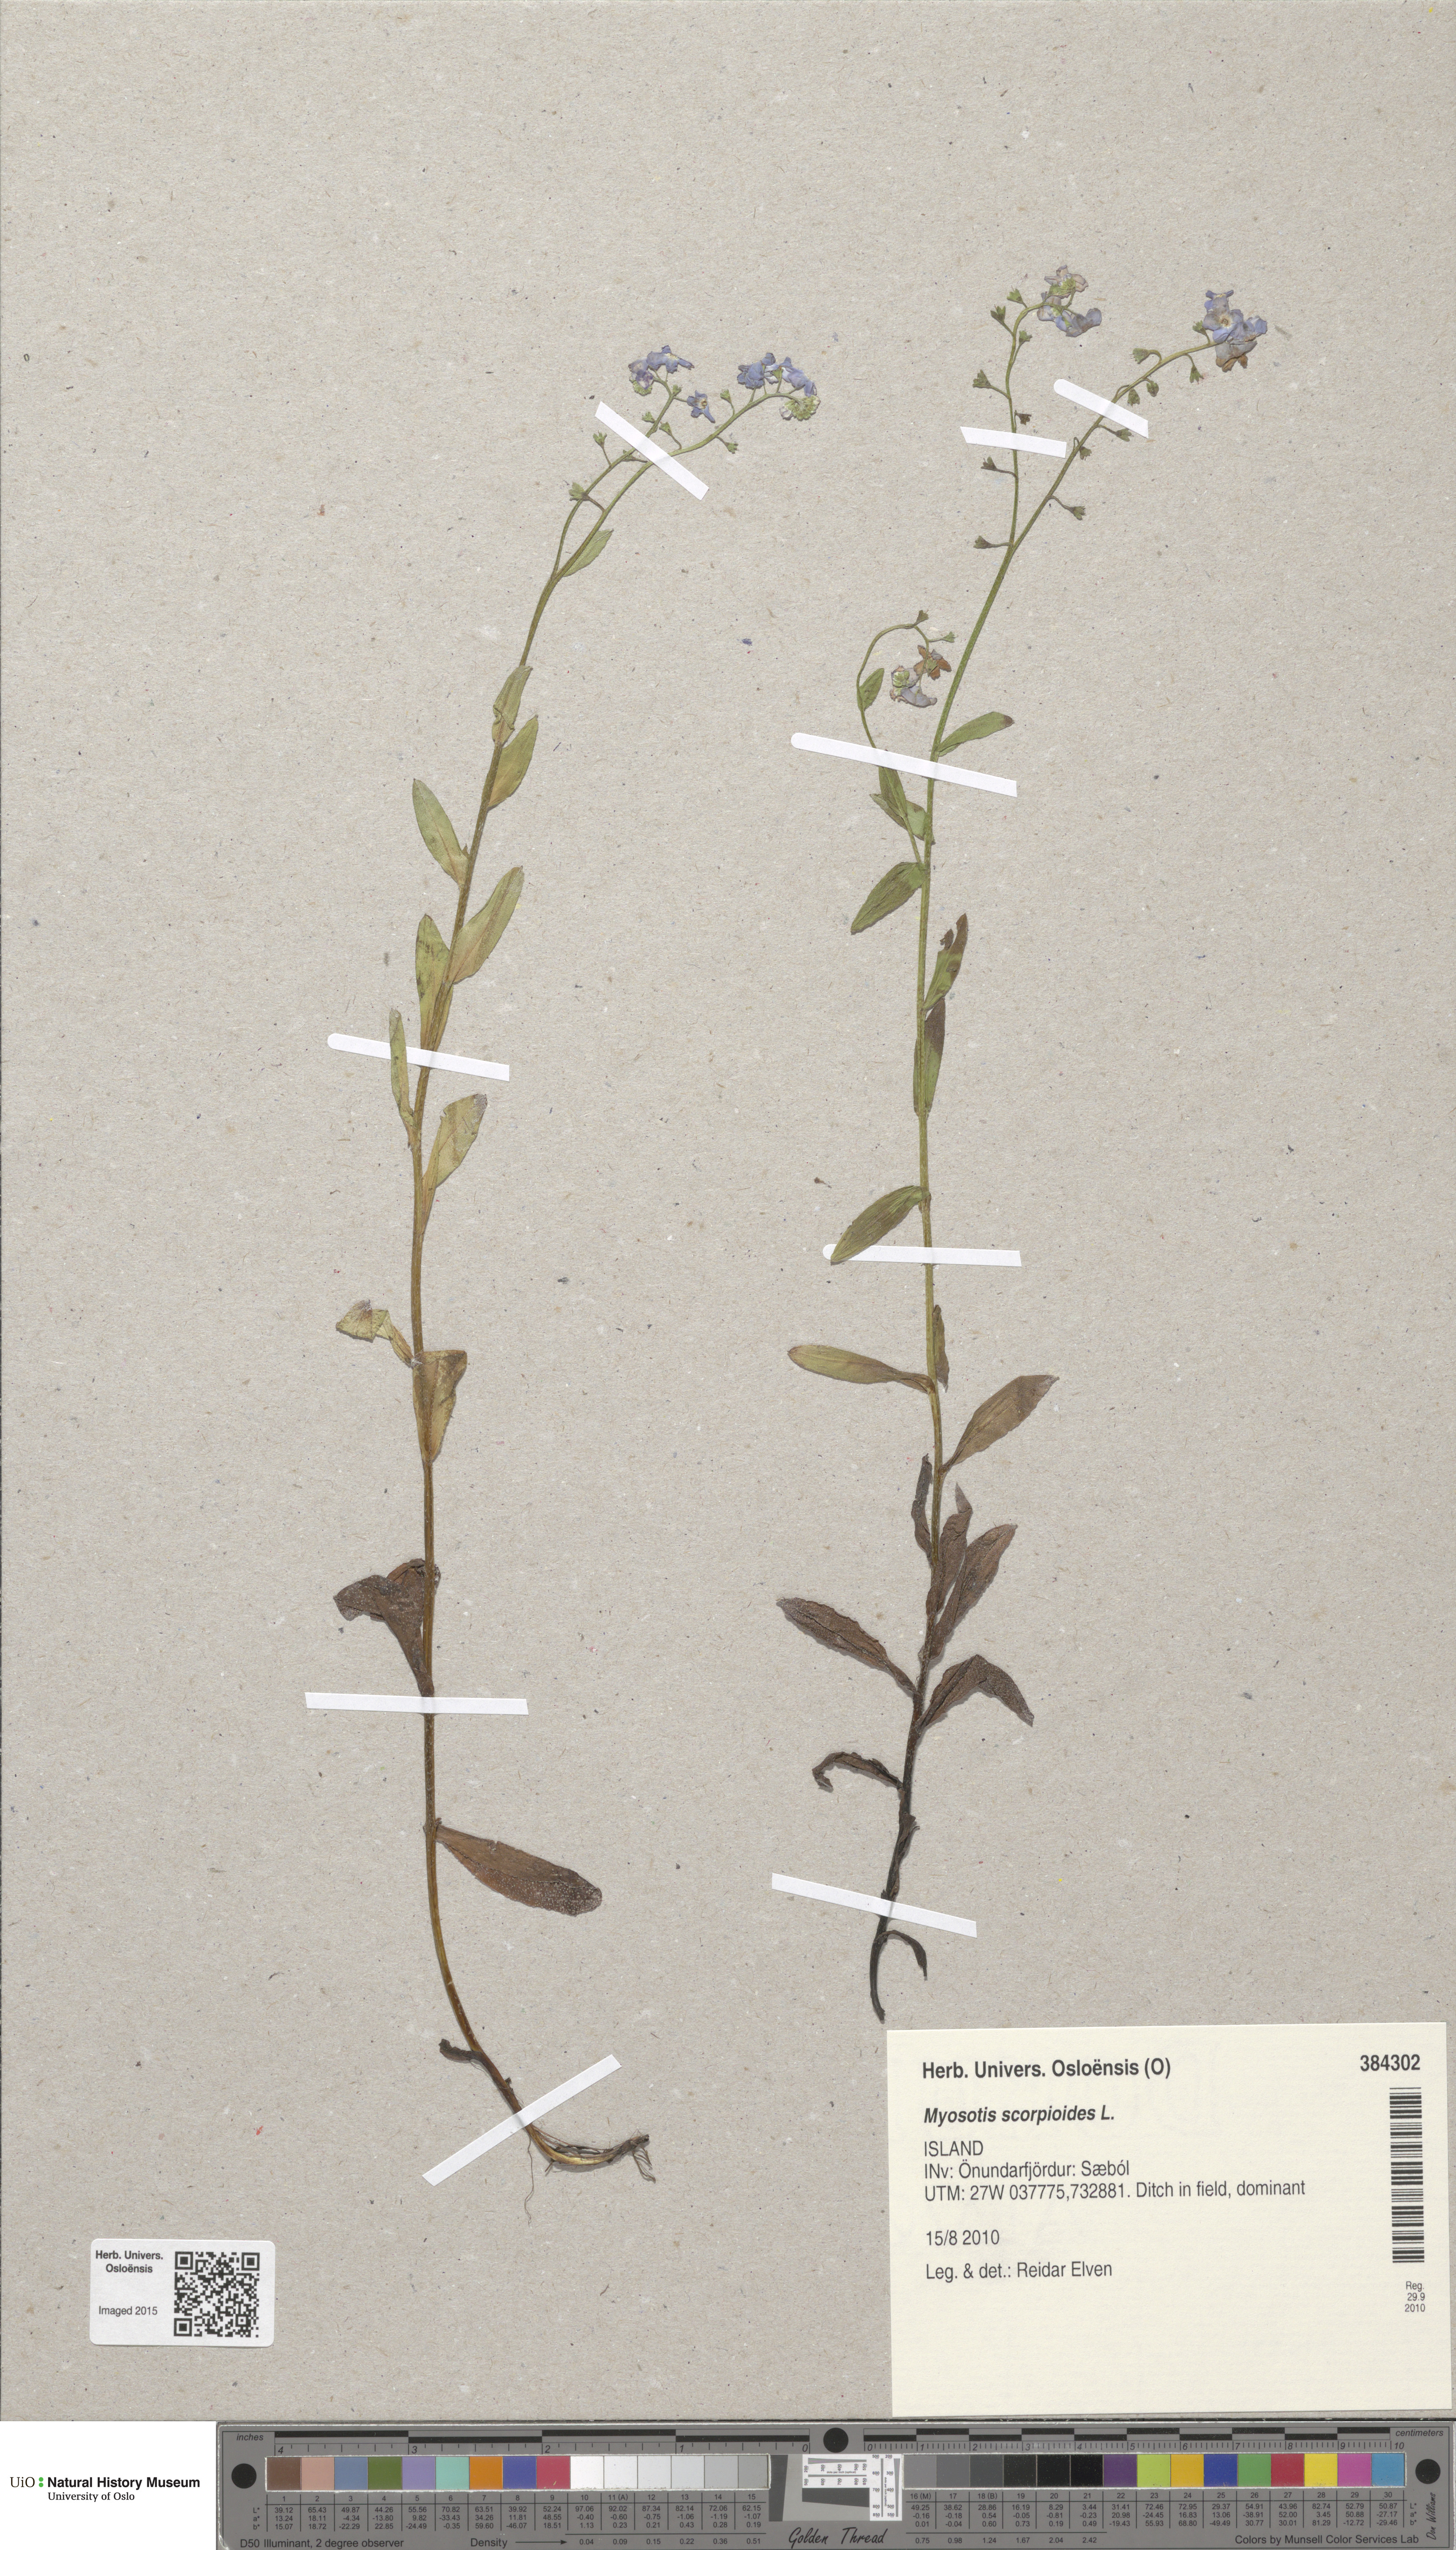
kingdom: Plantae
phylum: Tracheophyta
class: Magnoliopsida
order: Boraginales
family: Boraginaceae
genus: Myosotis
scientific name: Myosotis scorpioides
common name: Water forget-me-not
